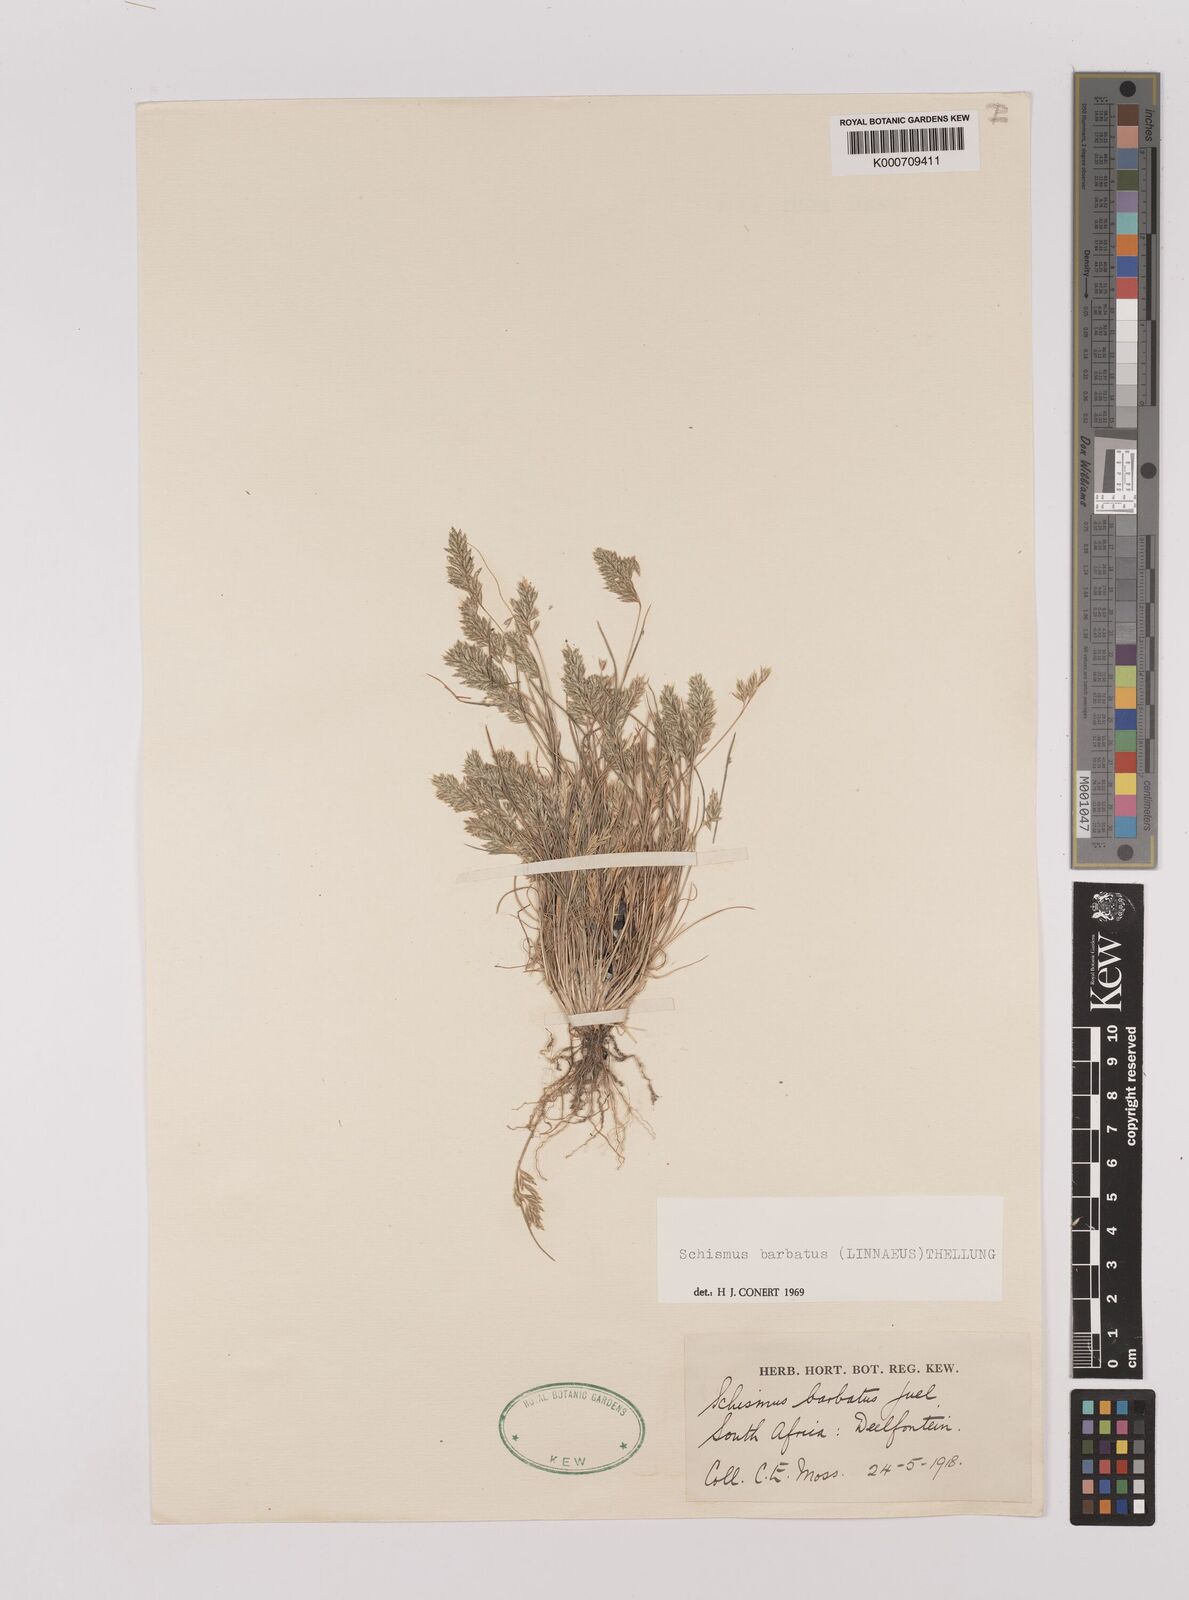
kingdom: Plantae
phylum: Tracheophyta
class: Liliopsida
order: Poales
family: Poaceae
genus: Schismus
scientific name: Schismus barbatus
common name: Kelch-grass
